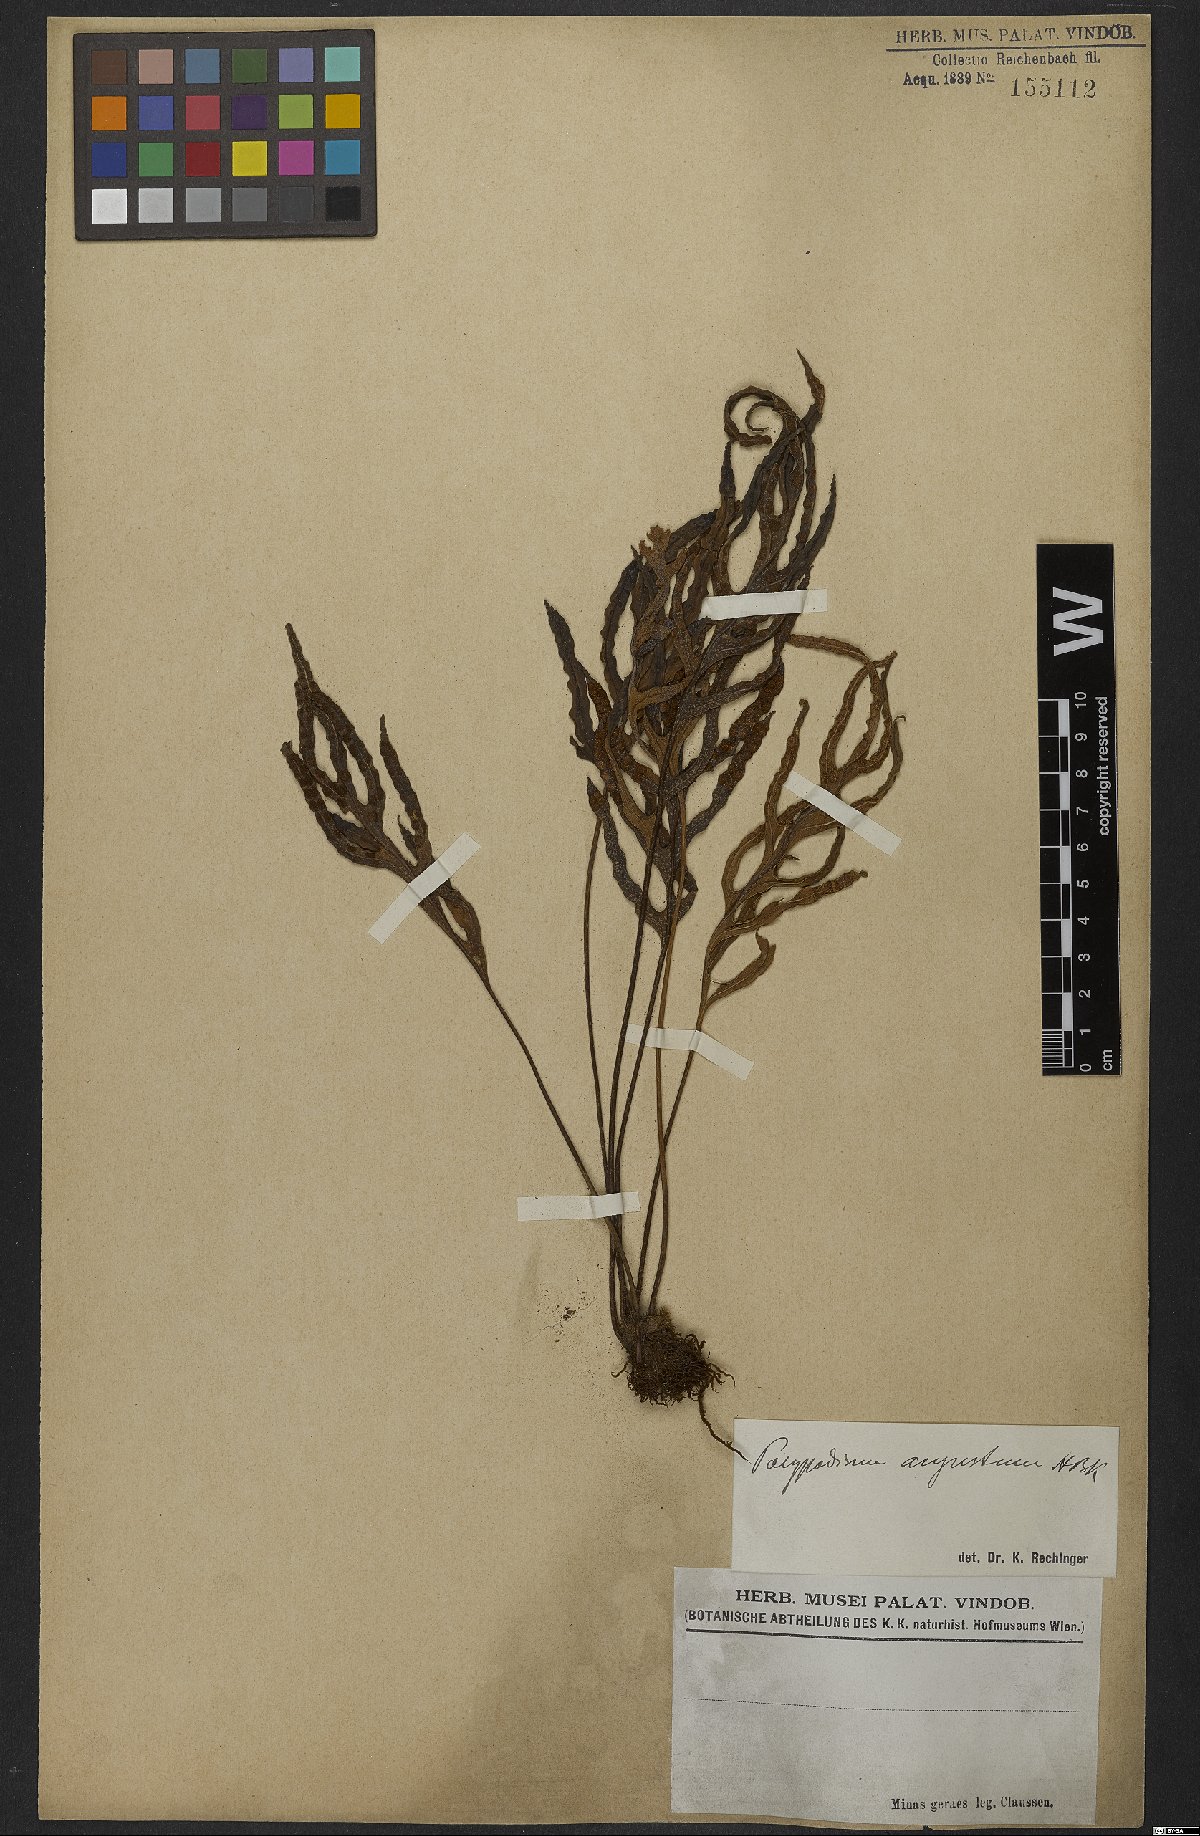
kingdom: Plantae
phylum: Tracheophyta
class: Polypodiopsida
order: Polypodiales
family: Polypodiaceae
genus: Pleopeltis
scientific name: Pleopeltis angusta
